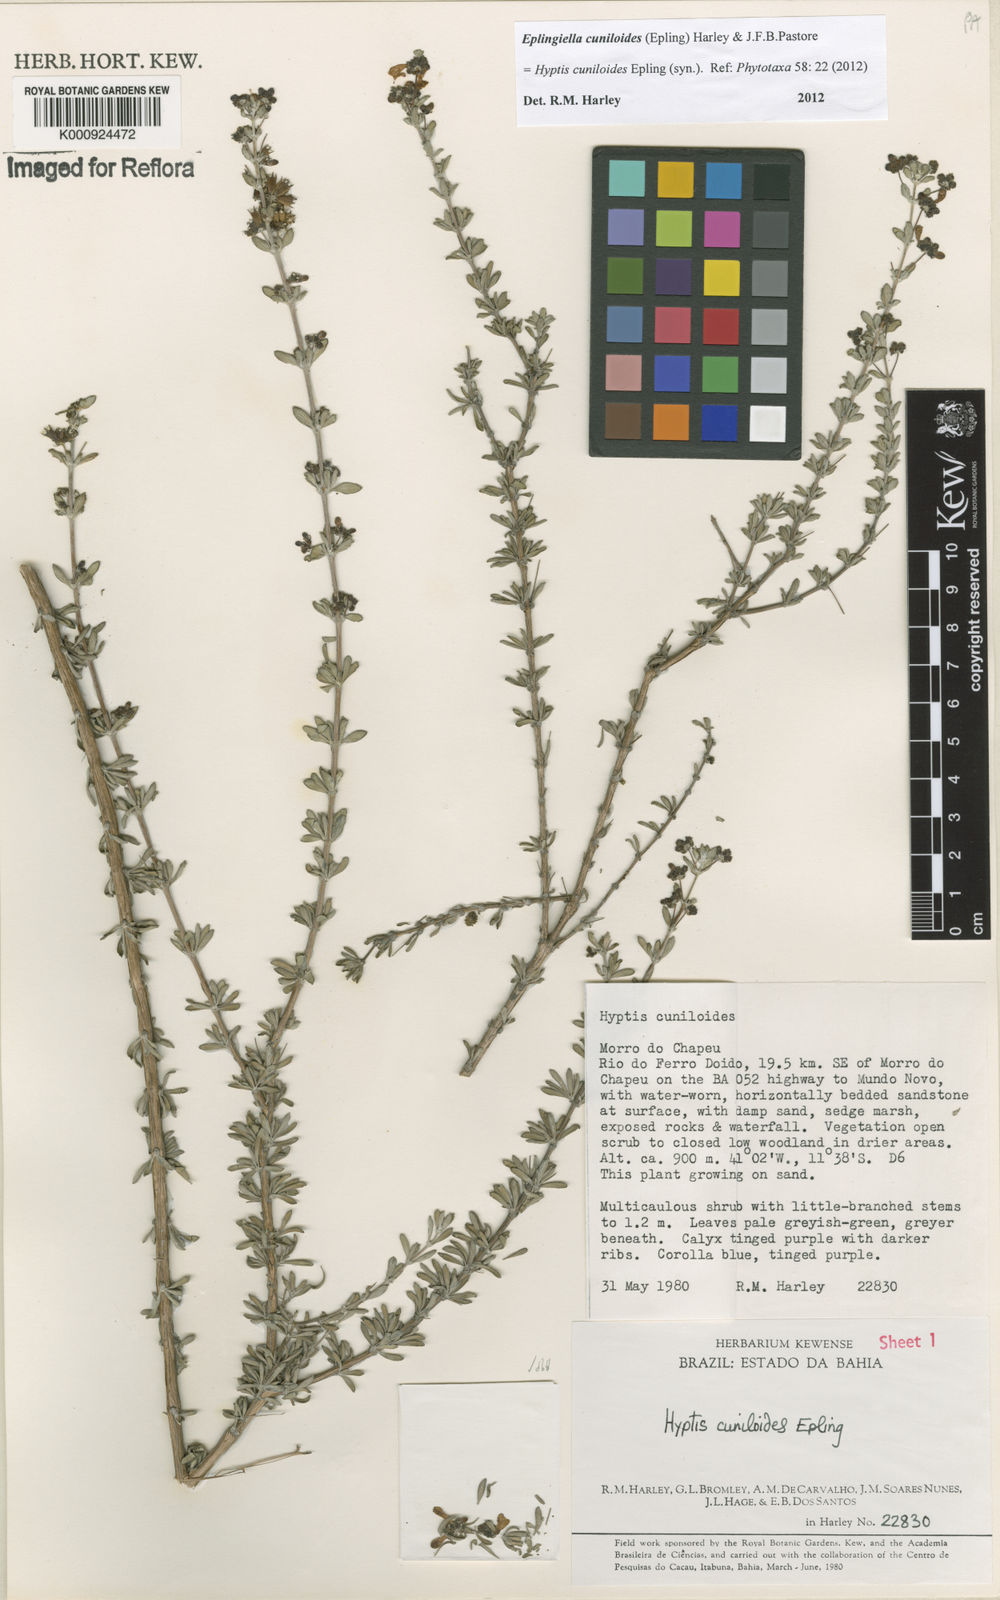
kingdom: Plantae
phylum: Tracheophyta
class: Magnoliopsida
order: Lamiales
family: Lamiaceae
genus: Eplingiella
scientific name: Eplingiella cuniloides
